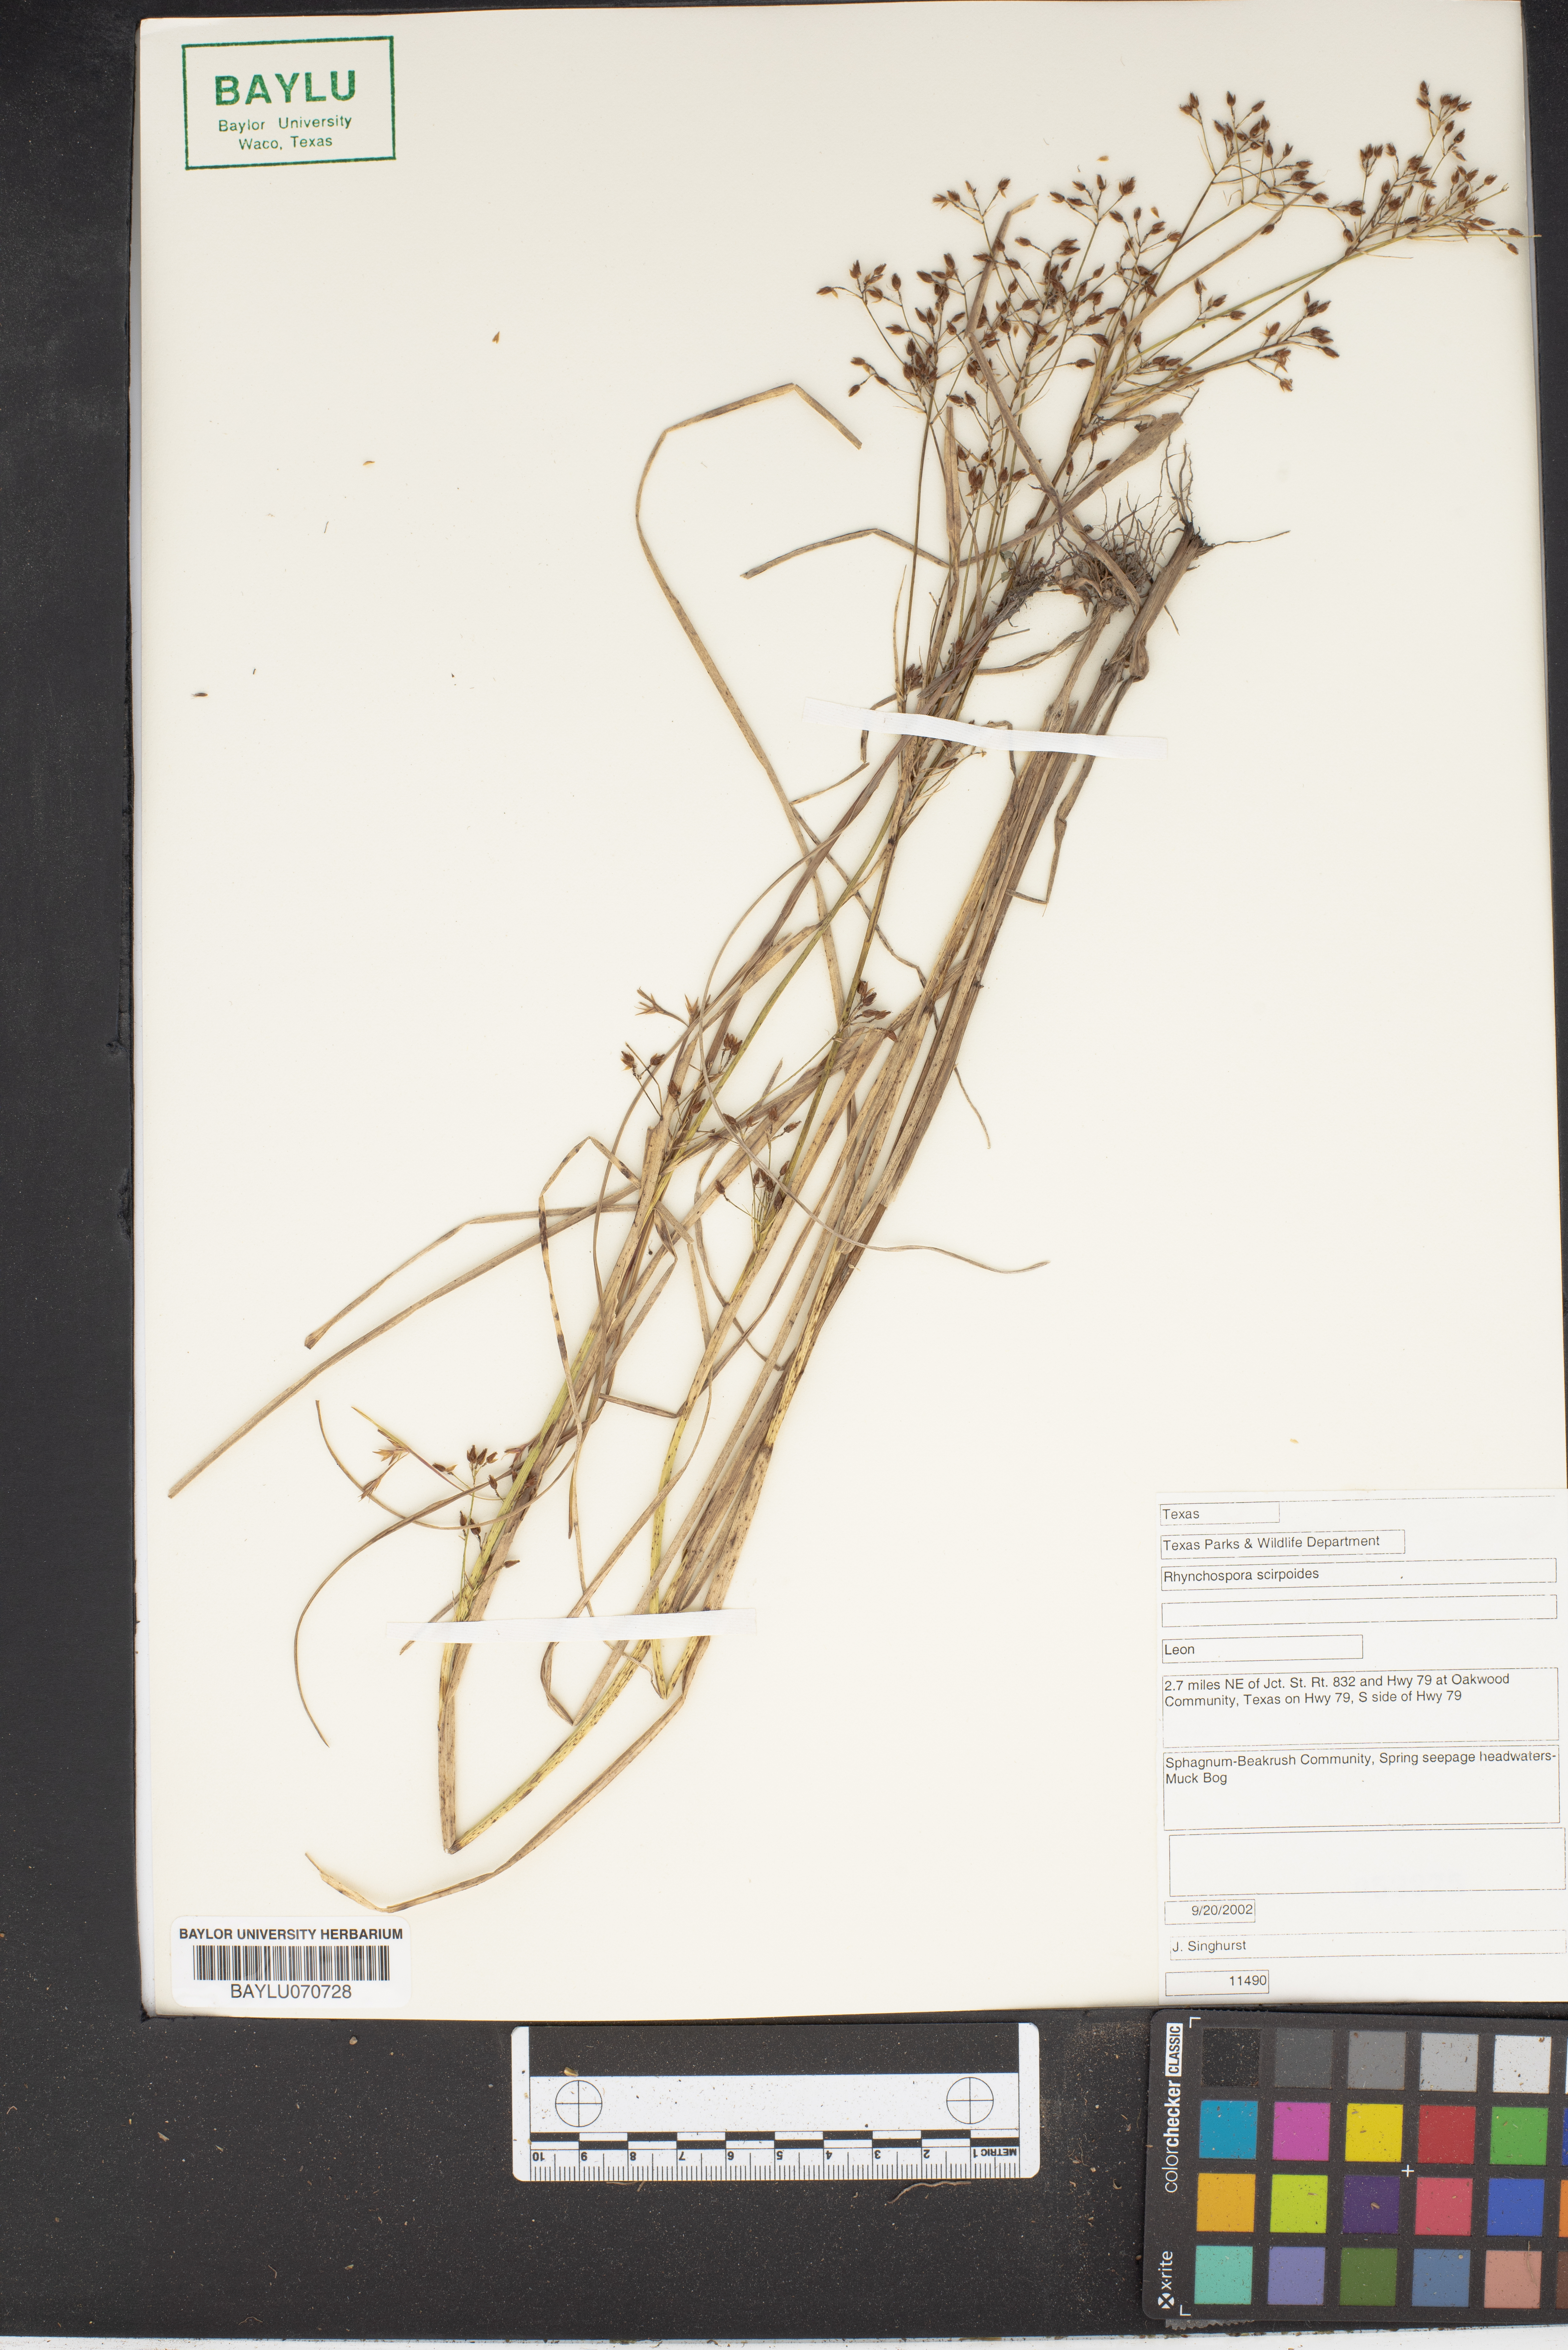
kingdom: Plantae
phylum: Tracheophyta
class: Liliopsida
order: Poales
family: Cyperaceae
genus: Rhynchospora
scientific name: Rhynchospora scirpoides
